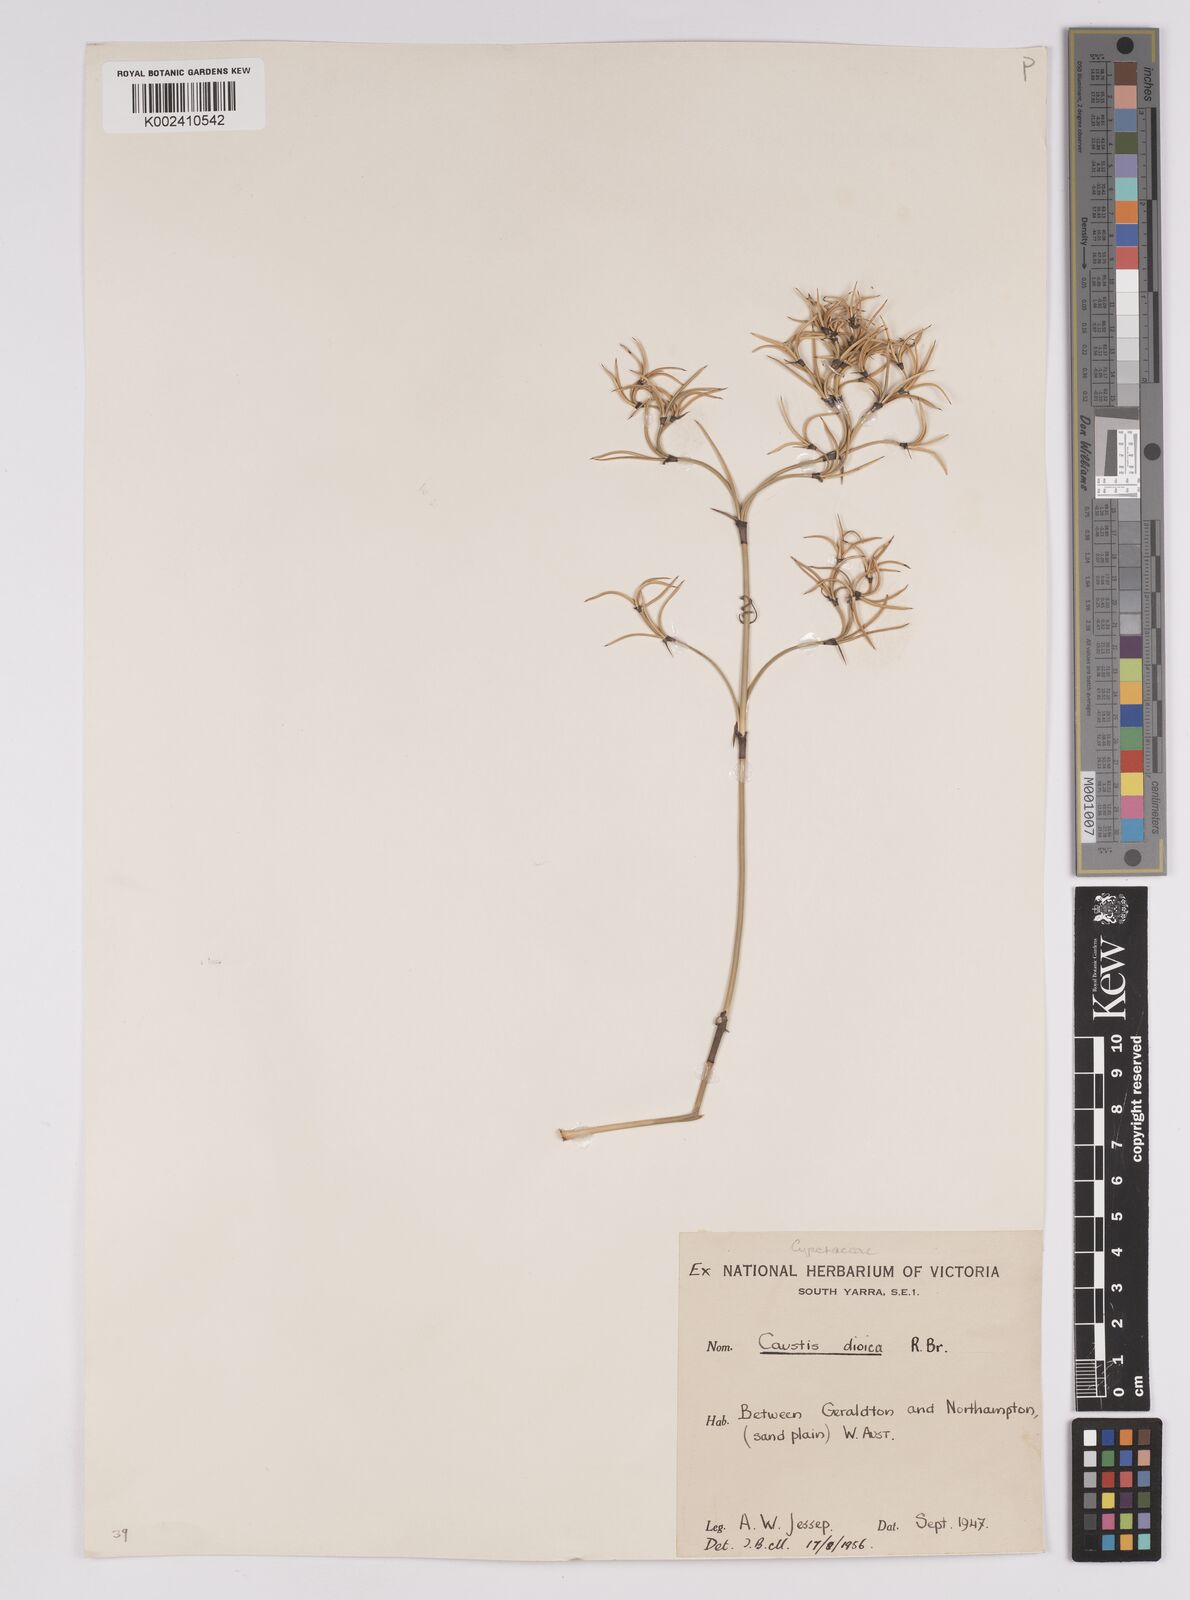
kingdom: Plantae
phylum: Tracheophyta
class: Liliopsida
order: Poales
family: Cyperaceae
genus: Caustis
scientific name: Caustis dioica
